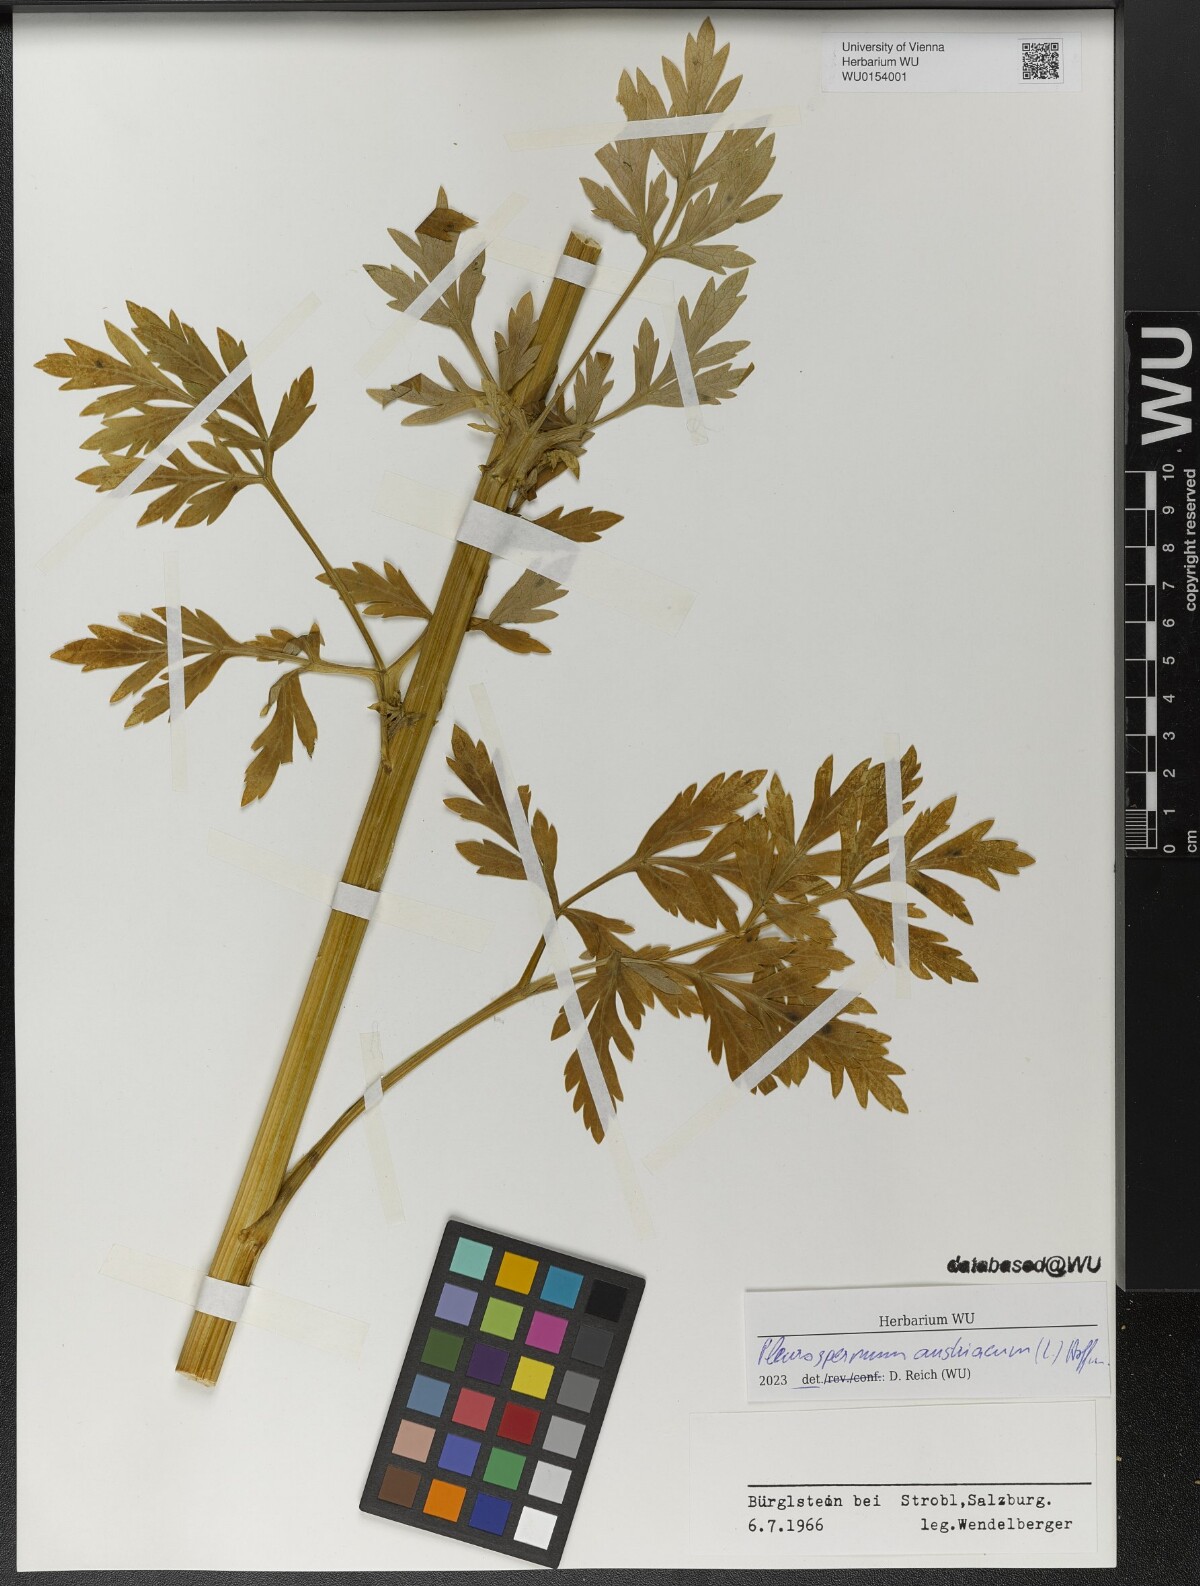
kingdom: Plantae
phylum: Tracheophyta
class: Magnoliopsida
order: Apiales
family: Apiaceae
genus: Pleurospermum
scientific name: Pleurospermum austriacum
